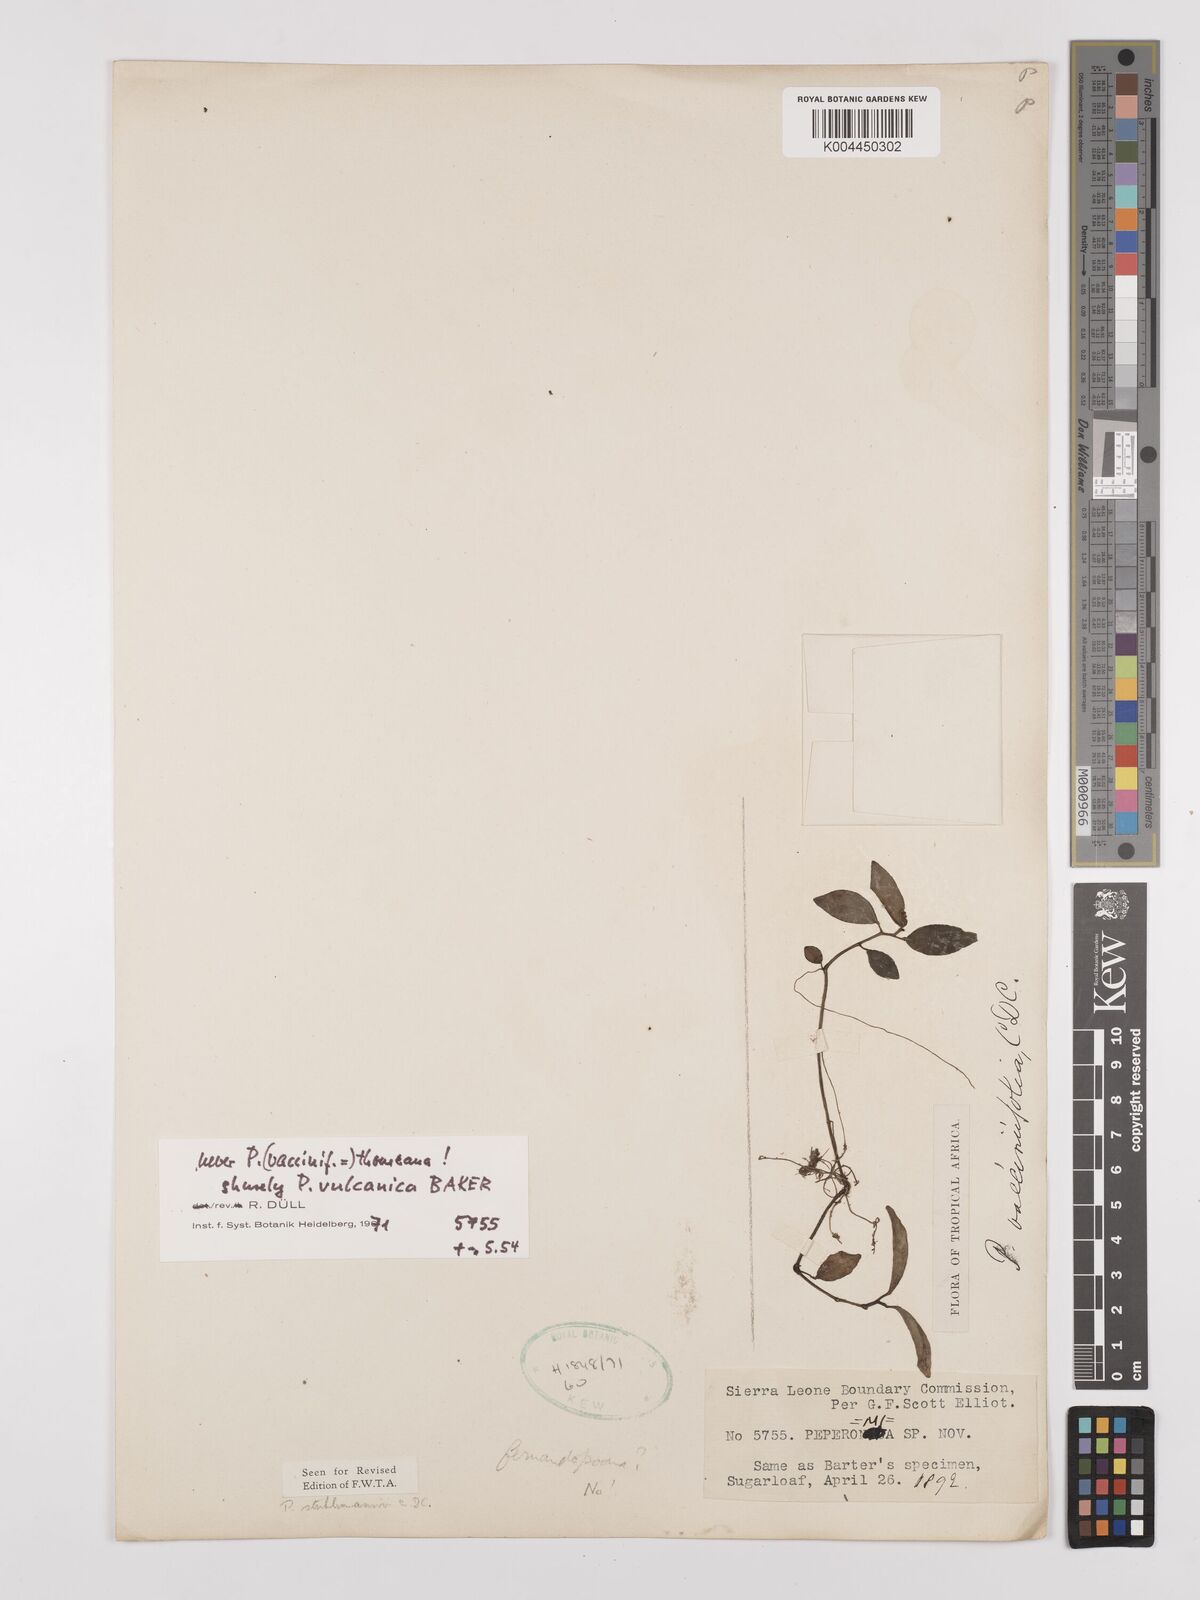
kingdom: Plantae
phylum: Tracheophyta
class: Magnoliopsida
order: Piperales
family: Piperaceae
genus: Peperomia
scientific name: Peperomia vulcanica
